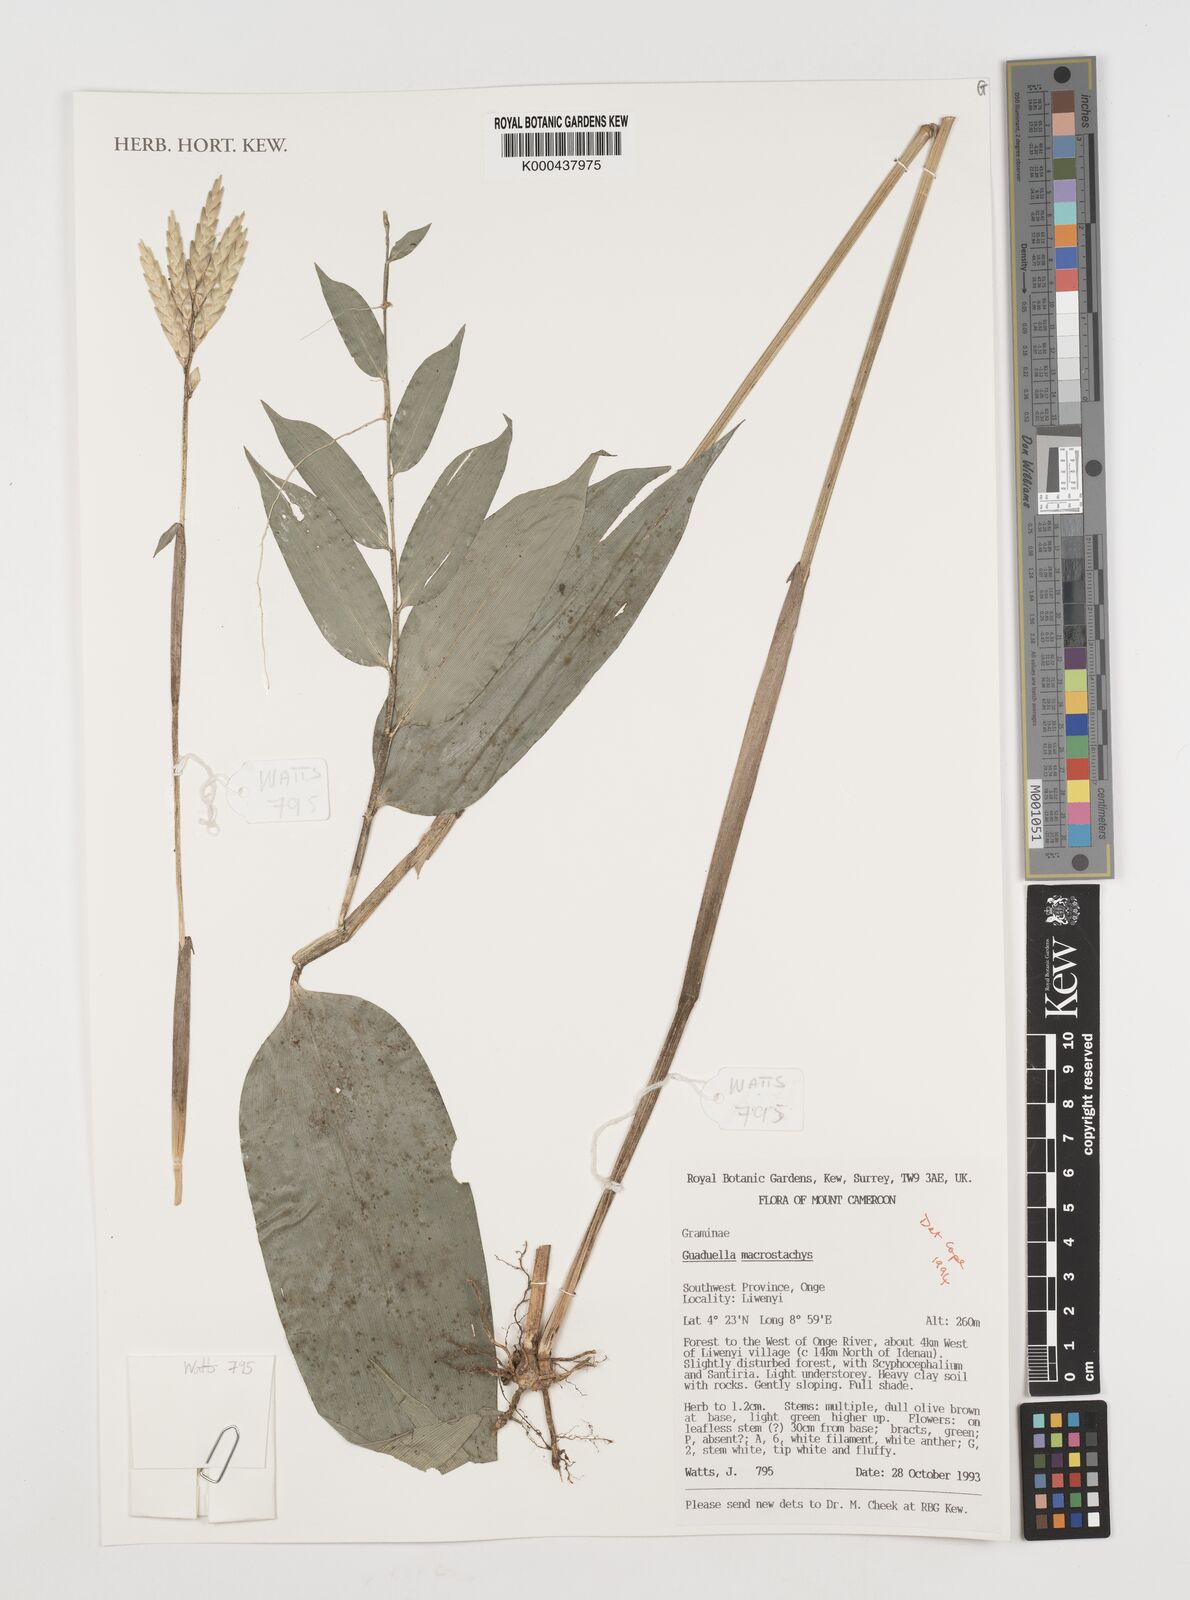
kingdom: Plantae
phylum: Tracheophyta
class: Liliopsida
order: Poales
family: Poaceae
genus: Guaduella
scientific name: Guaduella macrostachys
